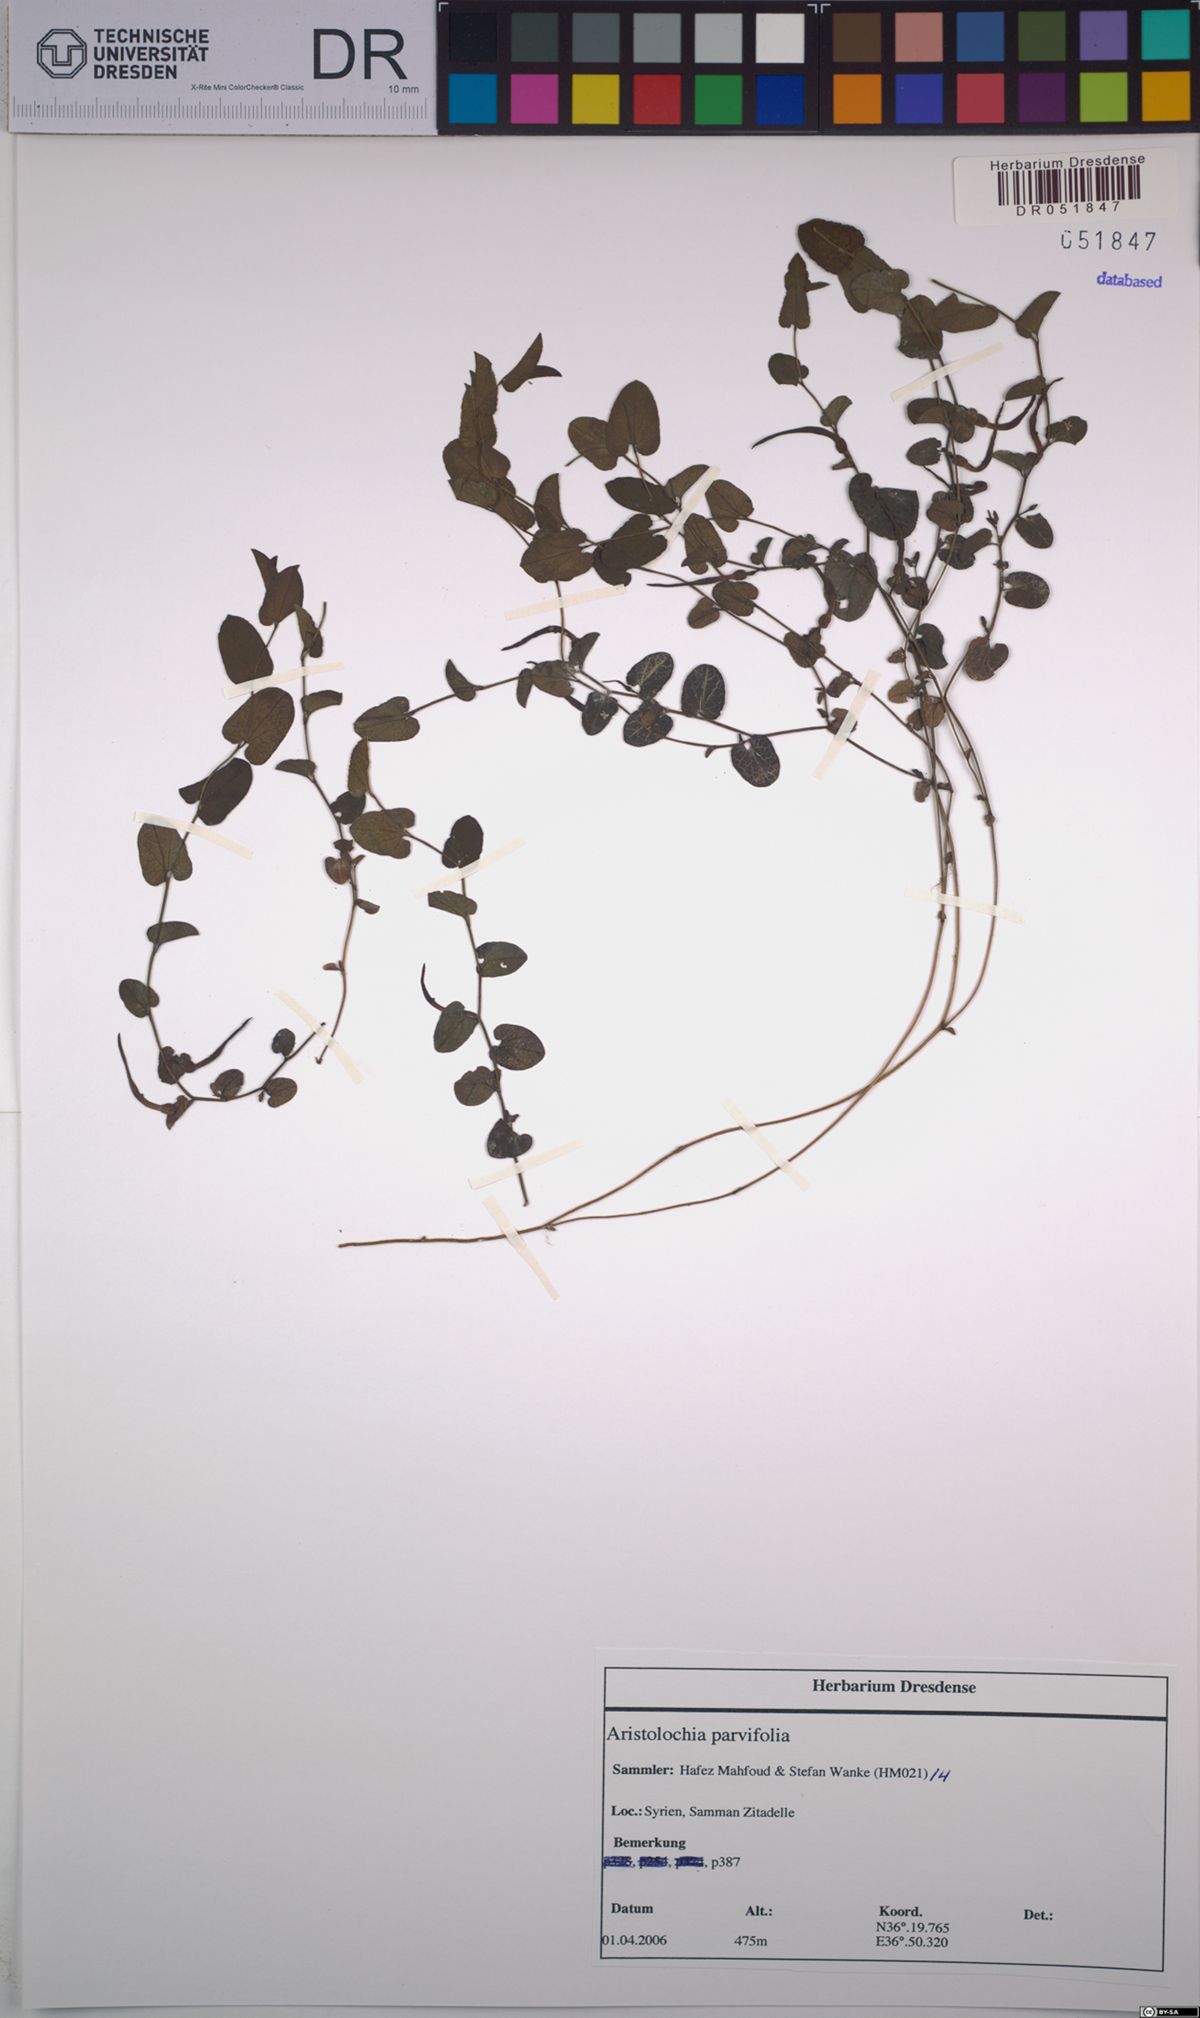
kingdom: Plantae
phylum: Tracheophyta
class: Magnoliopsida
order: Piperales
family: Aristolochiaceae
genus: Aristolochia
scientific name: Aristolochia parvifolia
